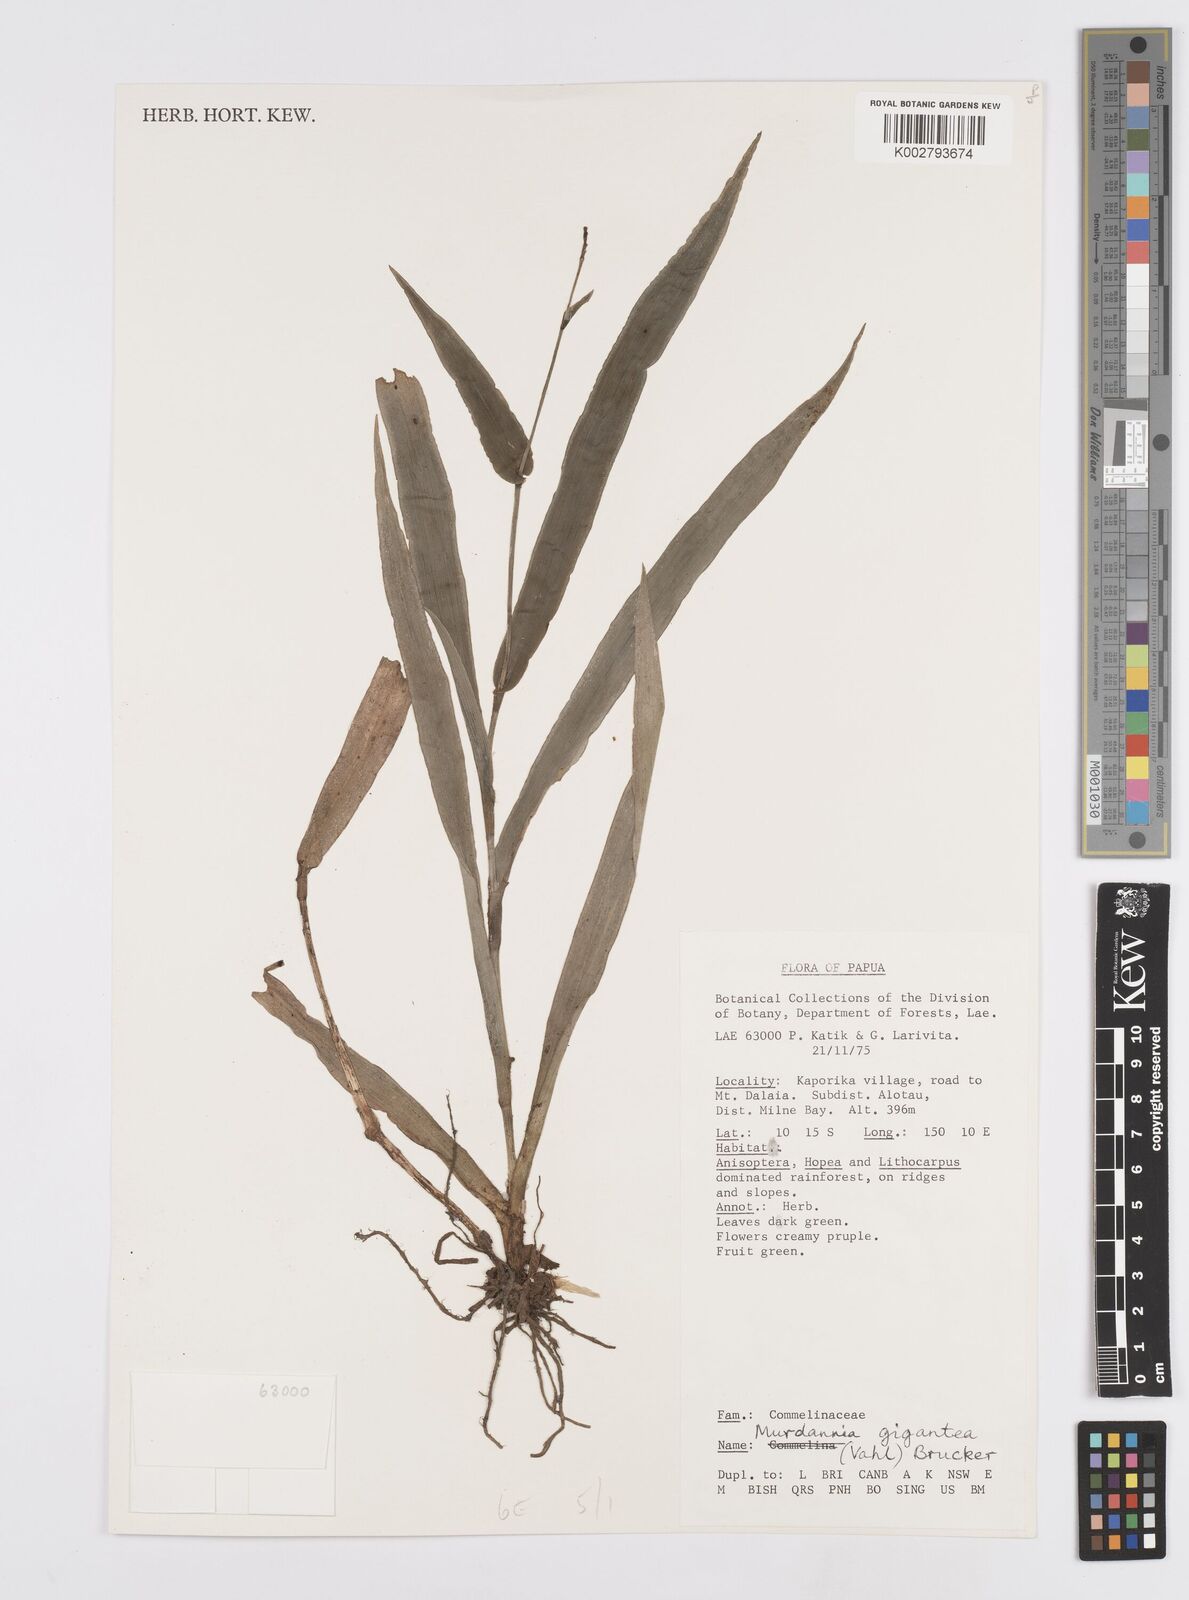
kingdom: Plantae
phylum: Tracheophyta
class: Liliopsida
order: Commelinales
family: Commelinaceae
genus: Murdannia
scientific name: Murdannia gigantea
